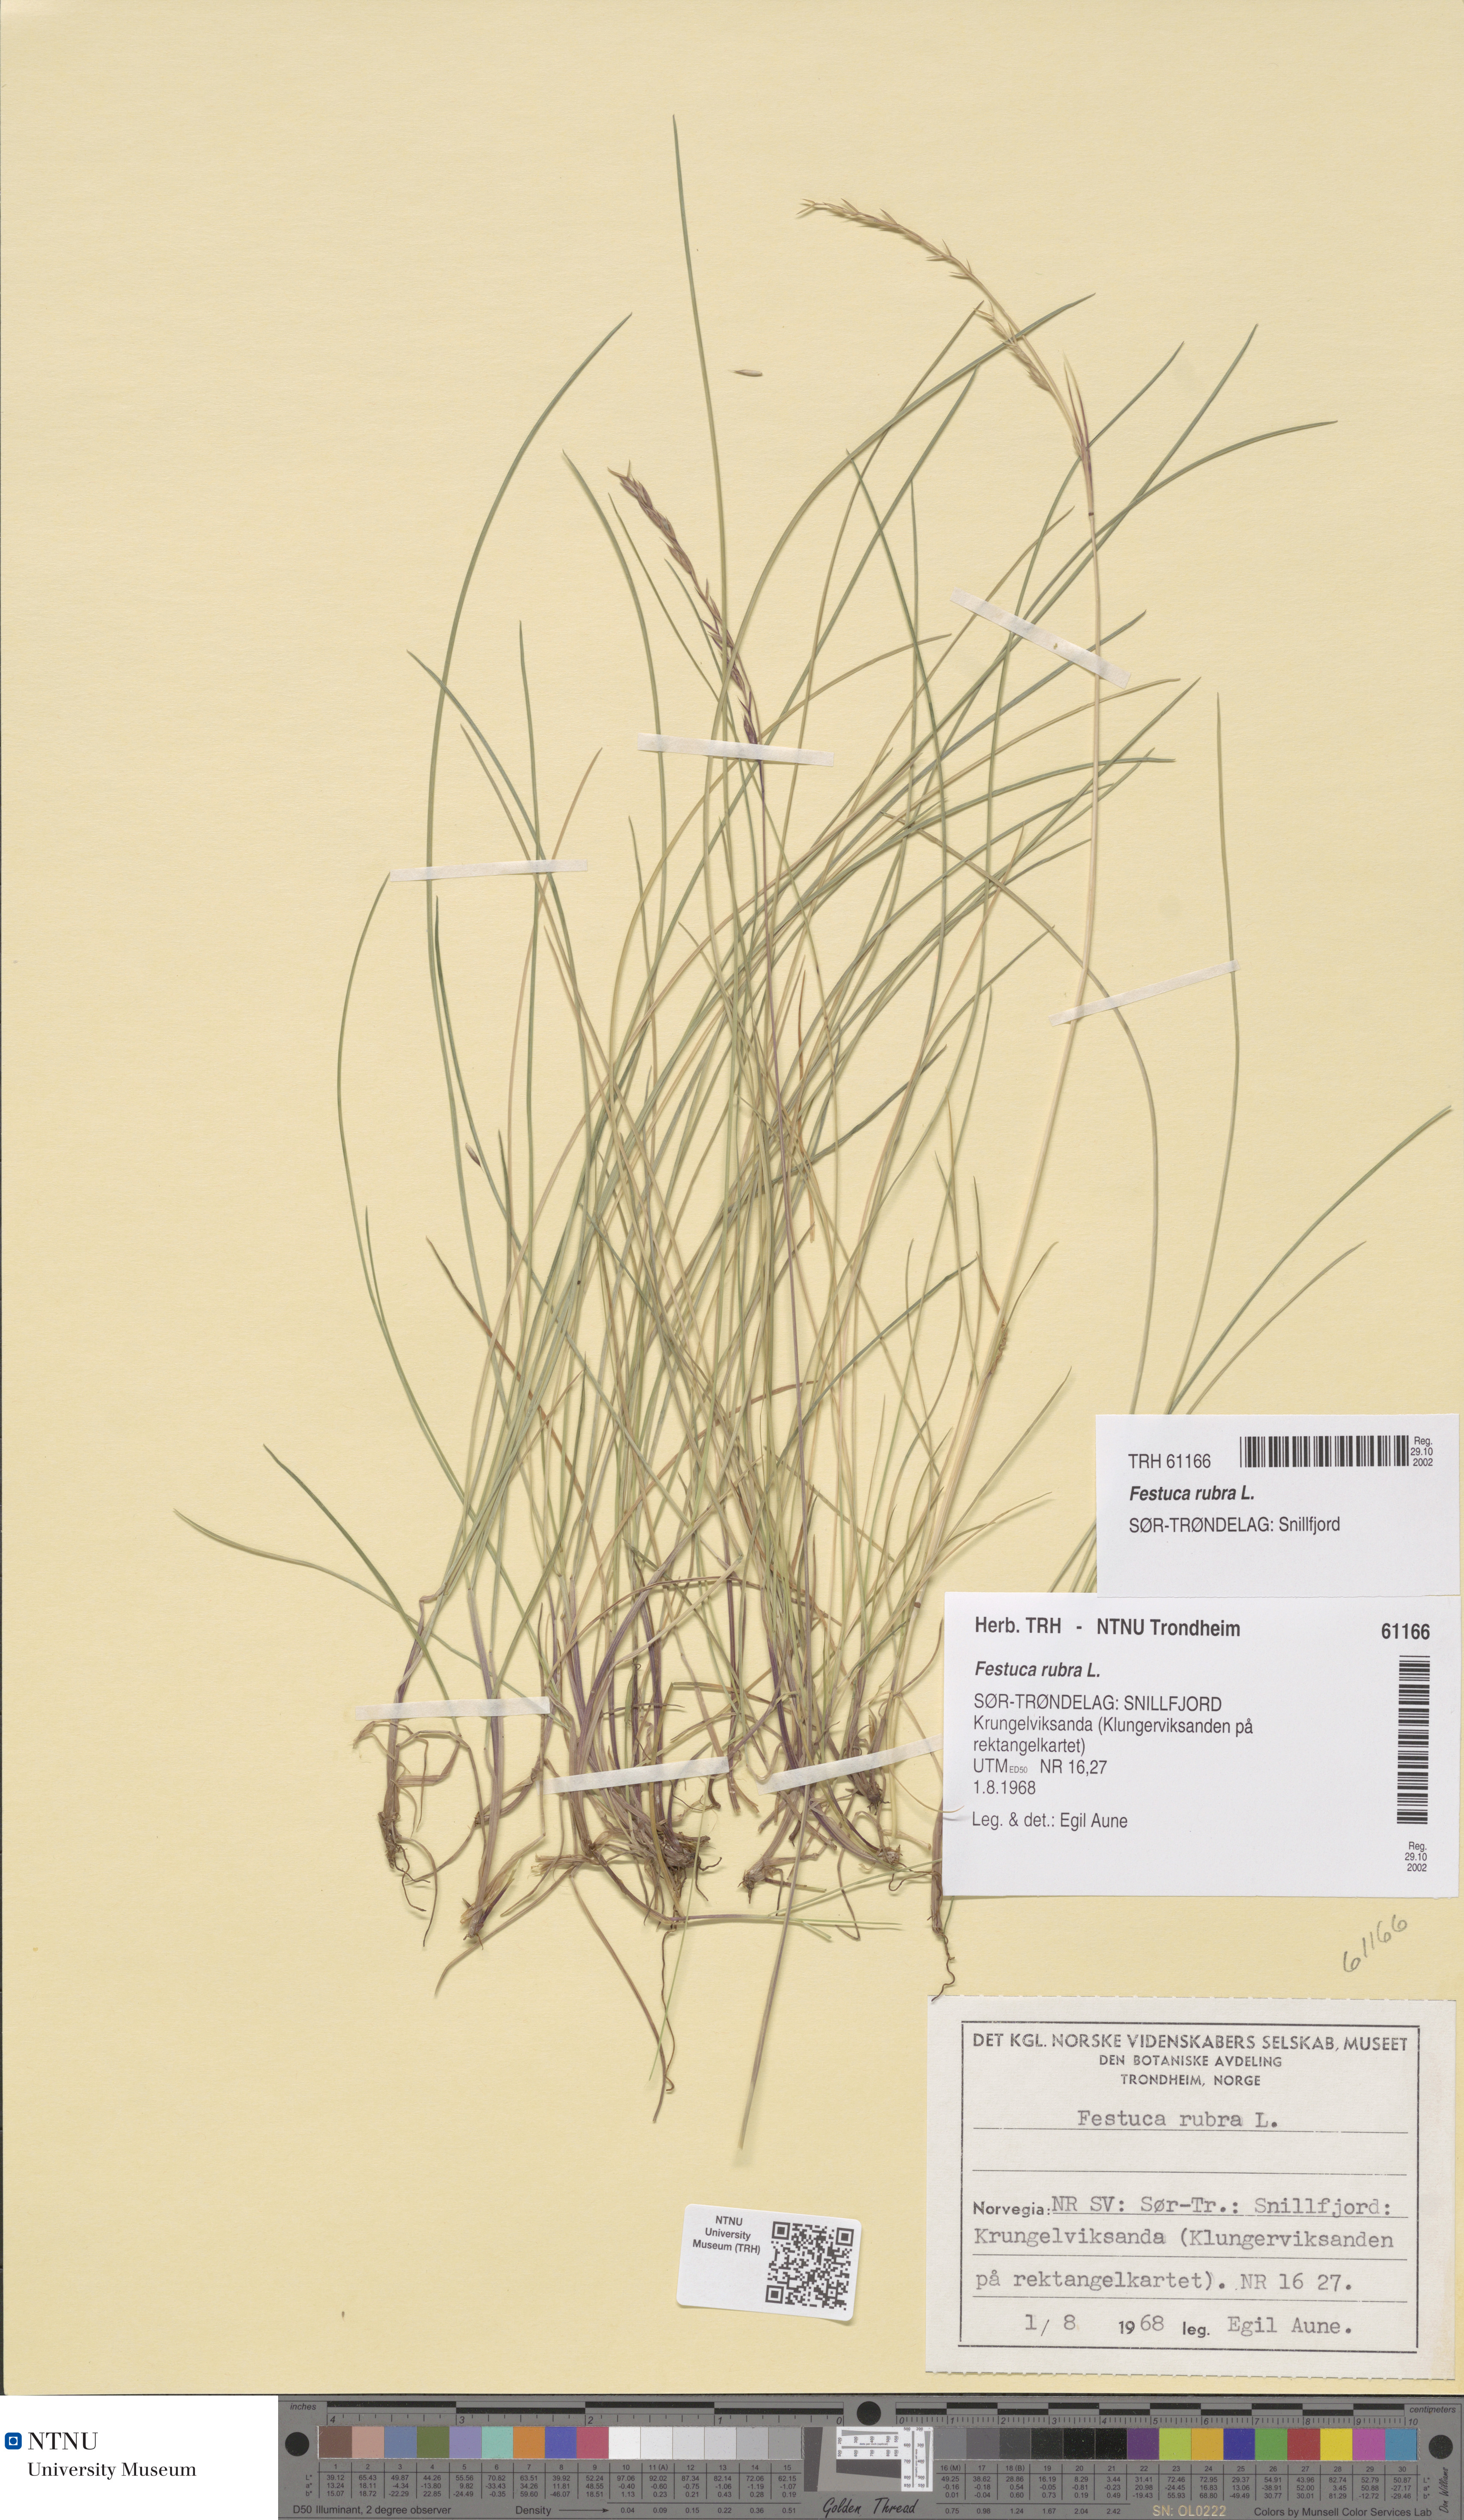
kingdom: Plantae
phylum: Tracheophyta
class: Liliopsida
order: Poales
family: Poaceae
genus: Festuca
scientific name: Festuca rubra
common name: Red fescue
